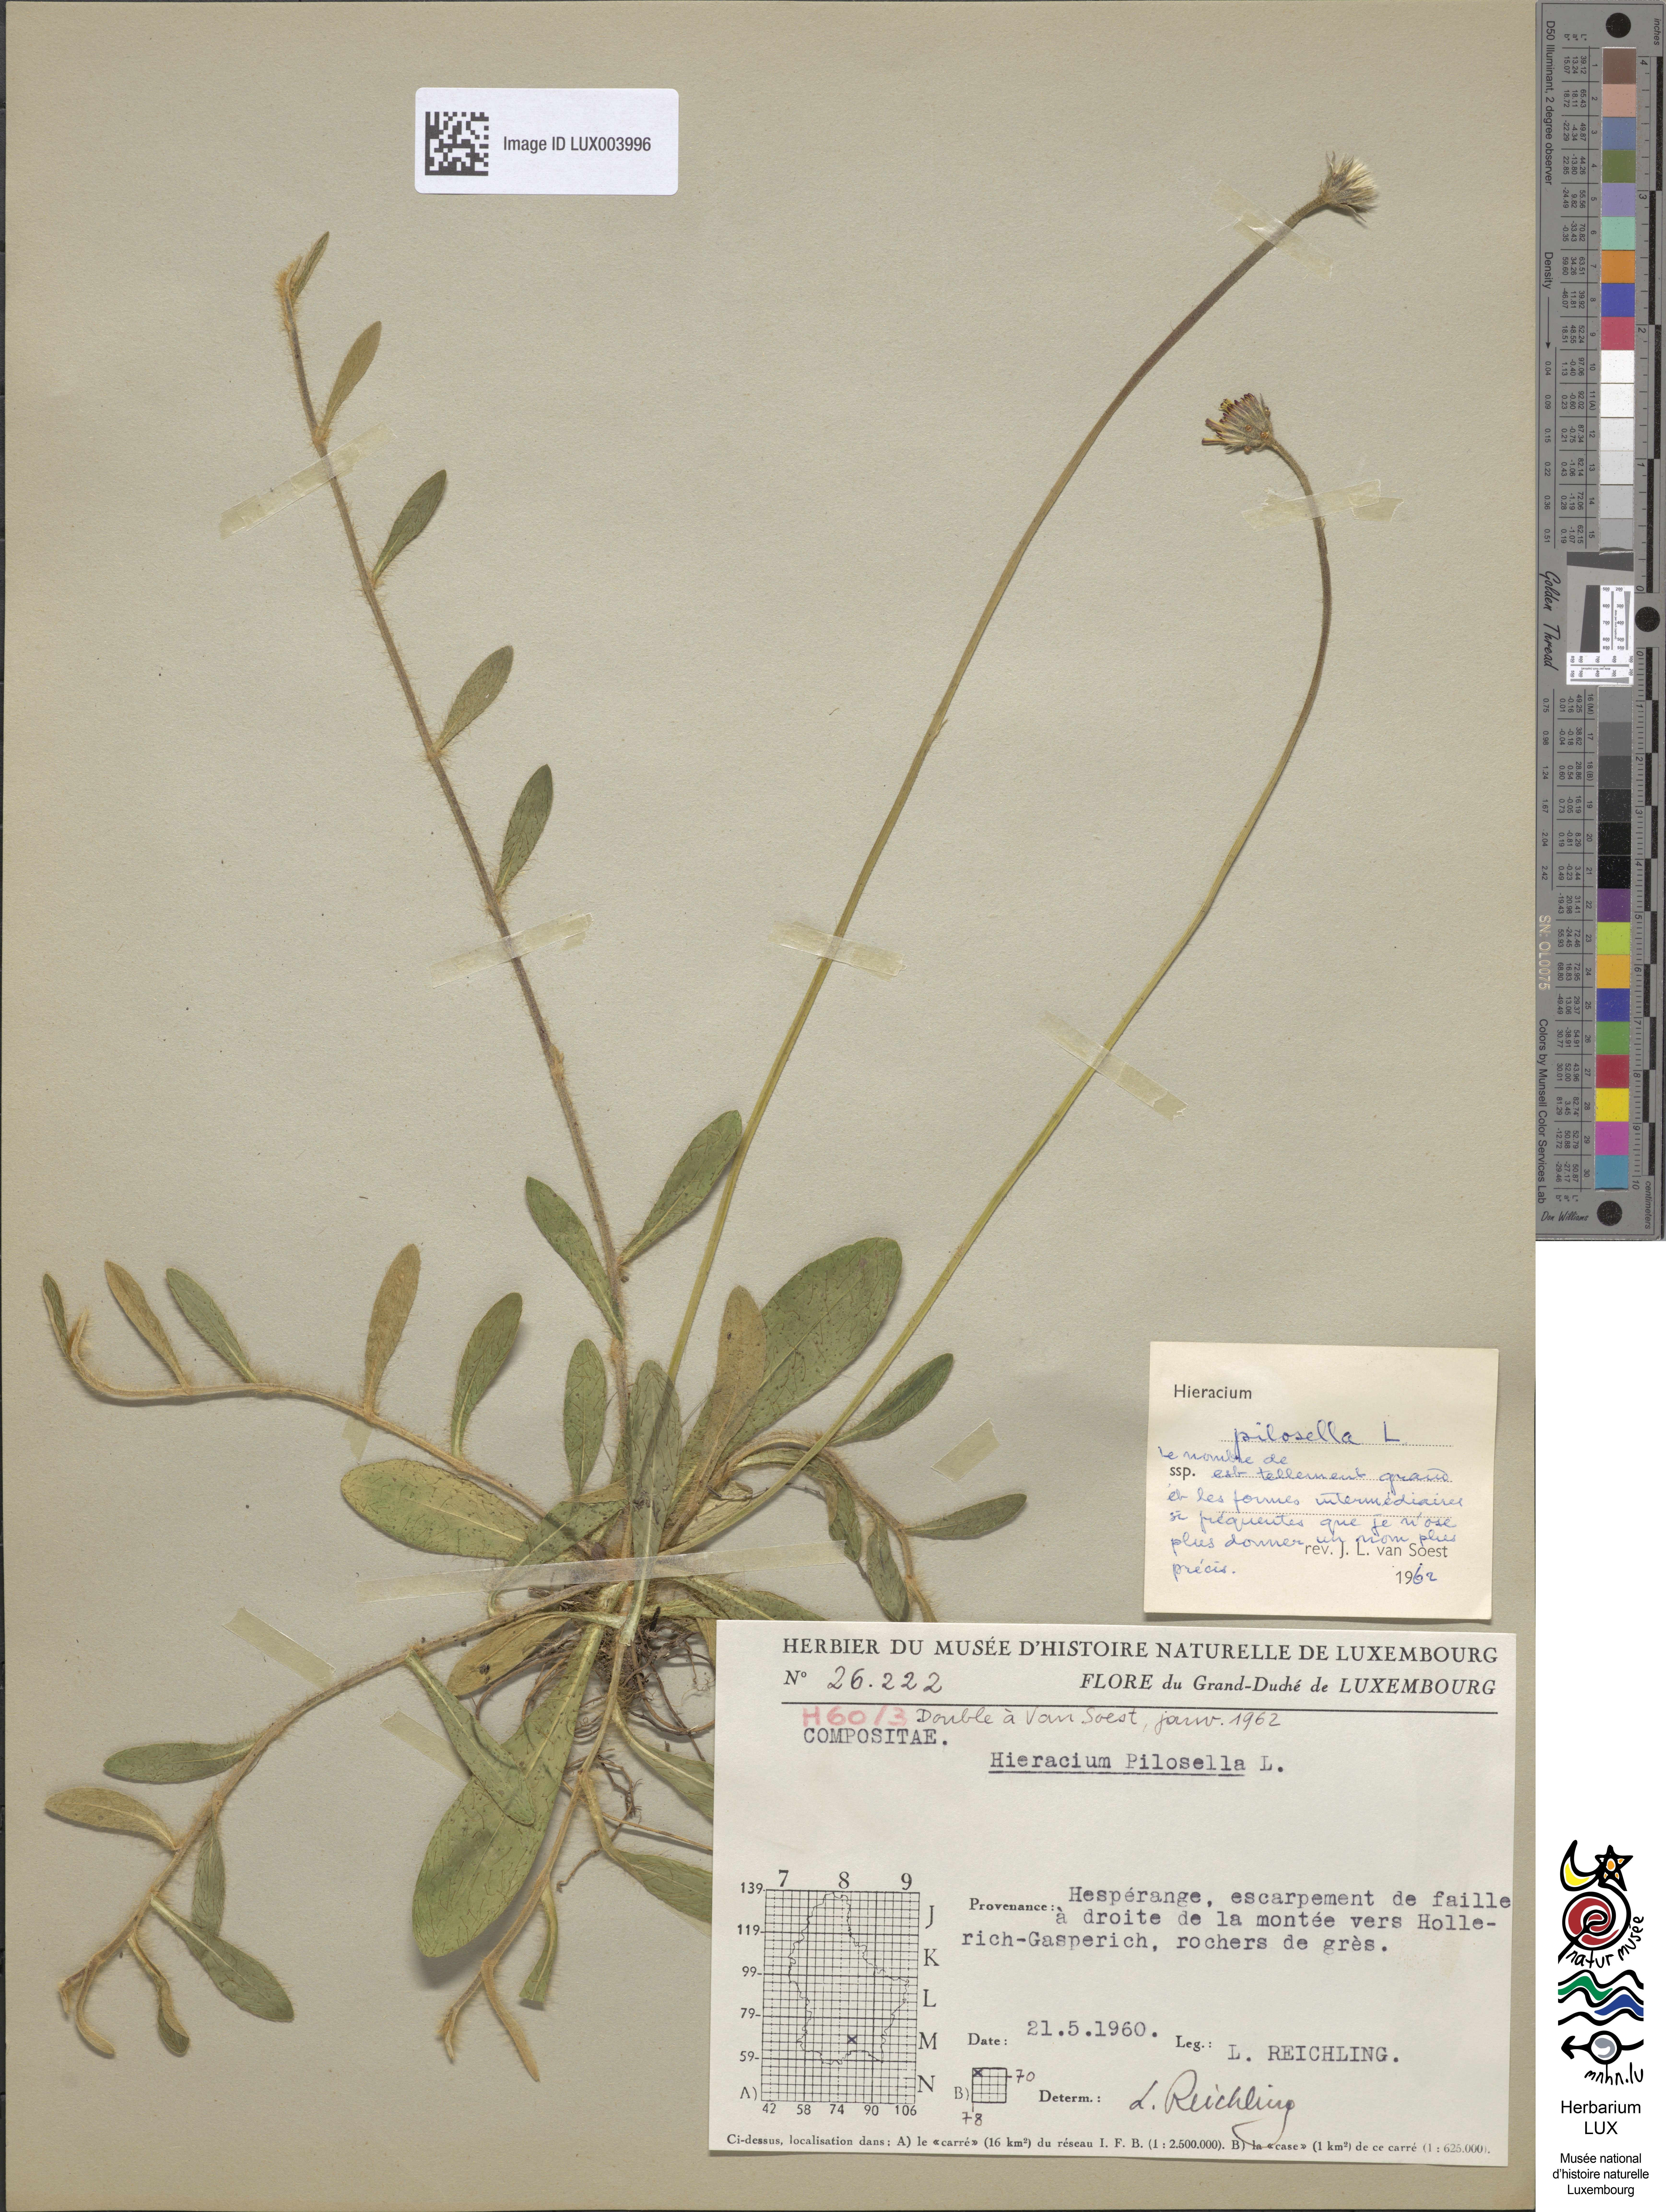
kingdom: Plantae
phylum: Tracheophyta
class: Magnoliopsida
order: Asterales
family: Asteraceae
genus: Pilosella
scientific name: Pilosella officinarum
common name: Mouse-ear hawkweed
